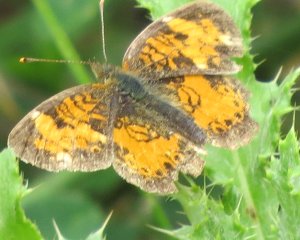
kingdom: Animalia
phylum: Arthropoda
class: Insecta
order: Lepidoptera
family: Nymphalidae
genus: Phyciodes
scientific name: Phyciodes tharos
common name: Northern Crescent
